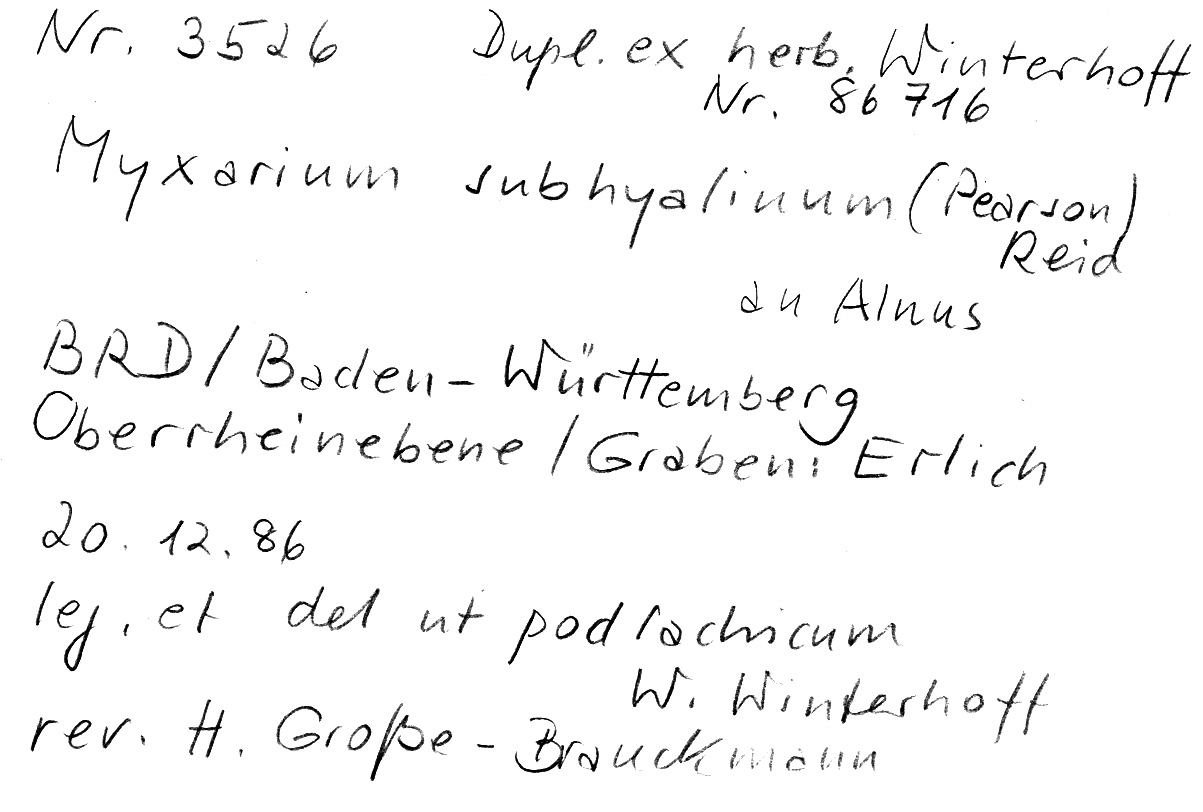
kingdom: Plantae
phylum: Tracheophyta
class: Magnoliopsida
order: Fagales
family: Betulaceae
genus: Alnus
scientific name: Alnus
